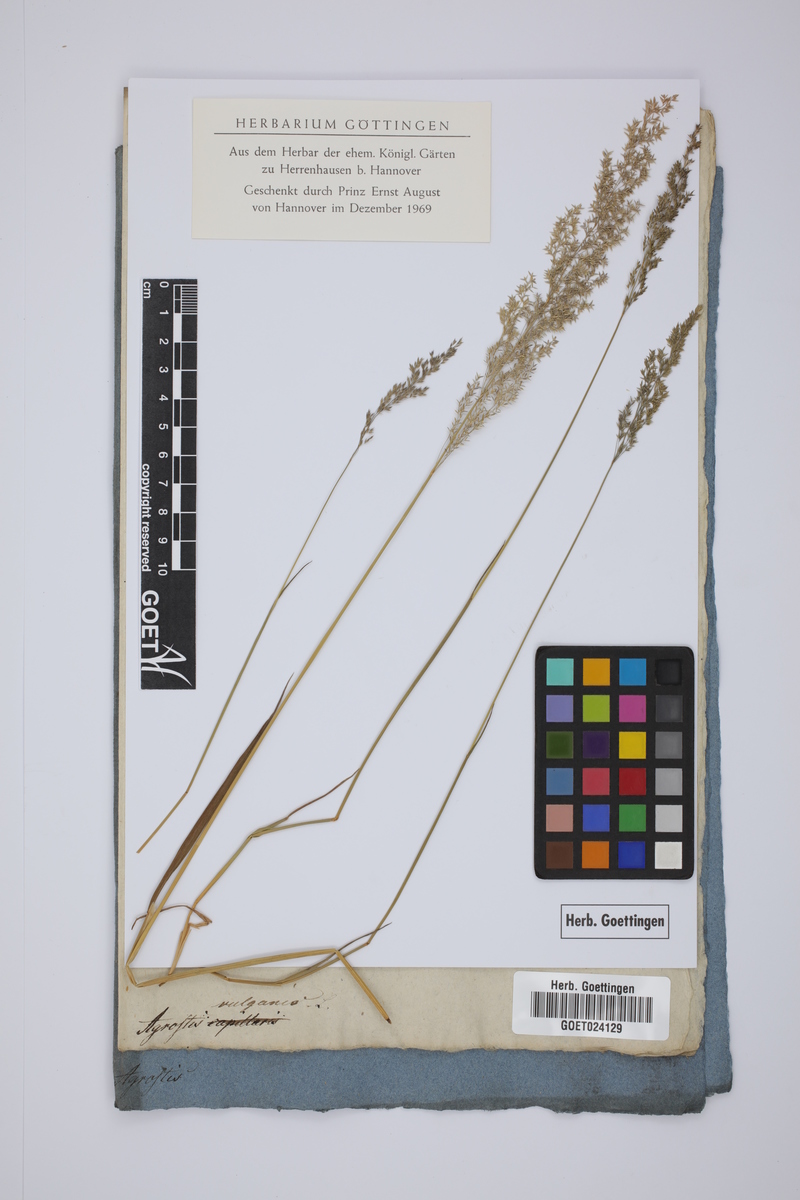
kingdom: Plantae
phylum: Tracheophyta
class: Liliopsida
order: Poales
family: Poaceae
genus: Agrostis
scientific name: Agrostis capillaris
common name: Colonial bentgrass
